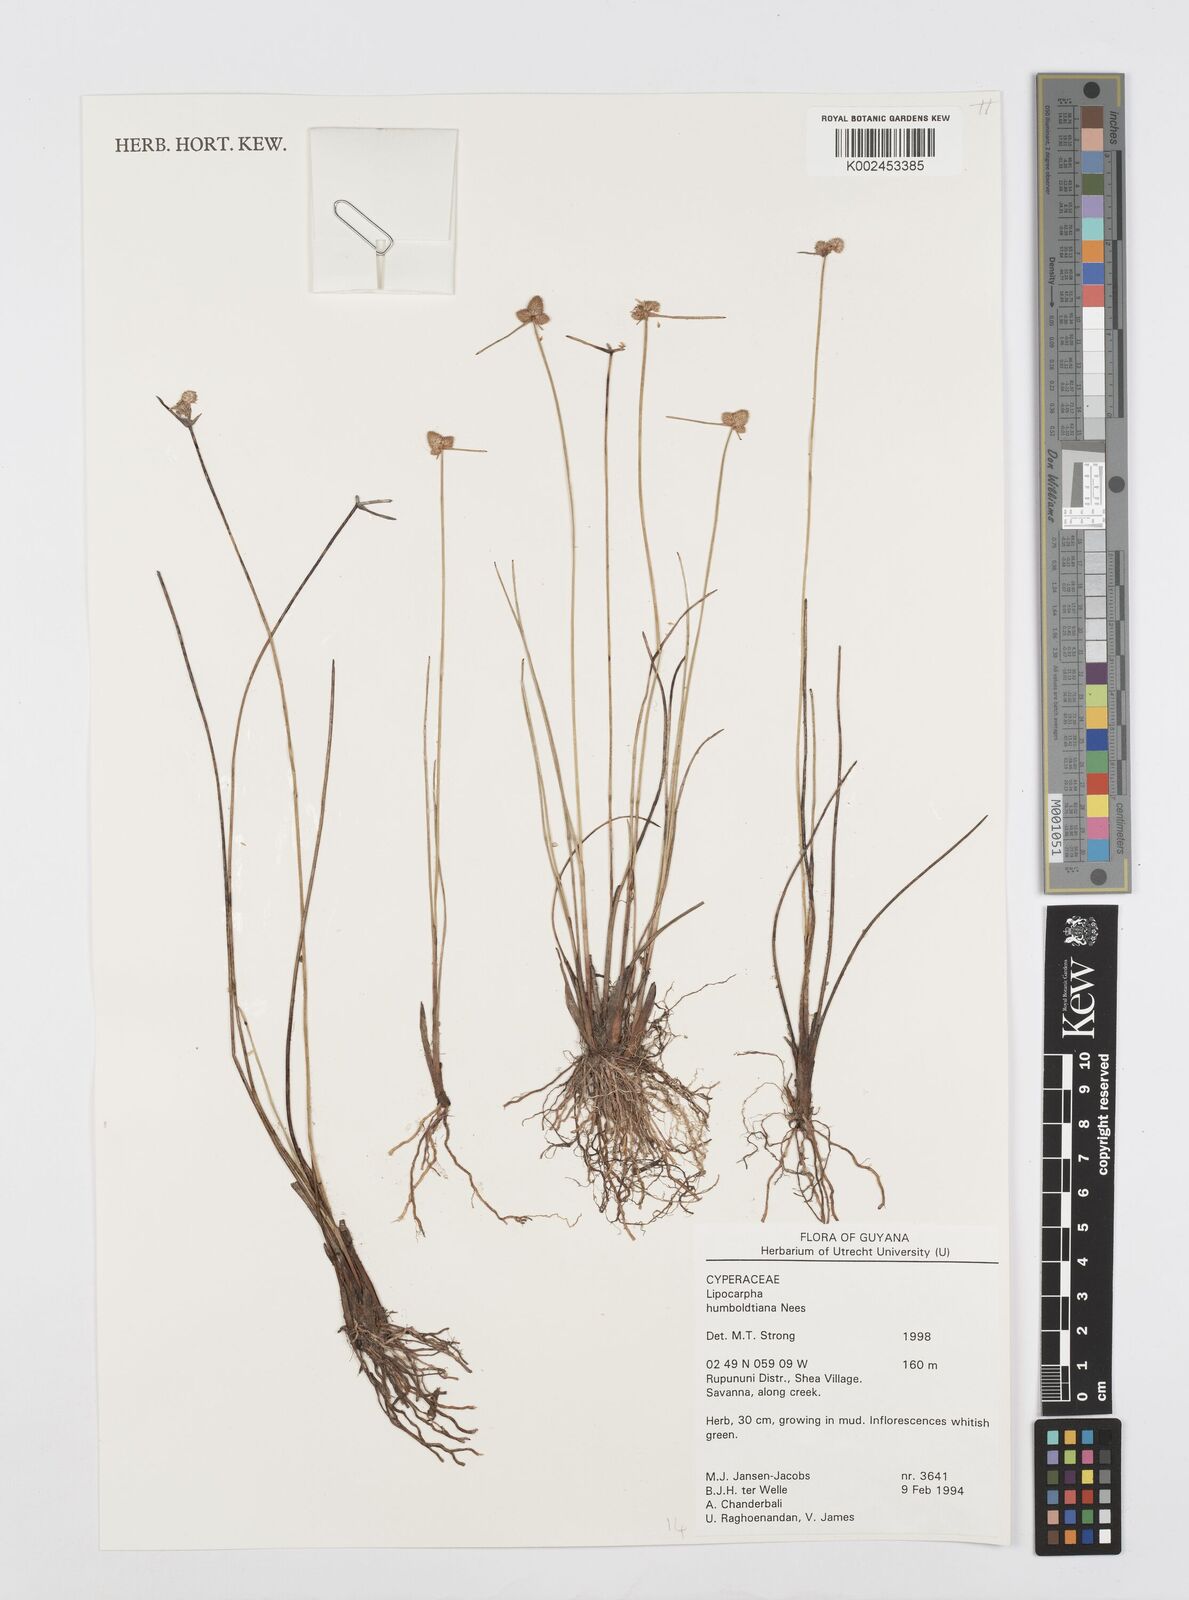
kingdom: Plantae
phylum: Tracheophyta
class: Liliopsida
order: Poales
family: Cyperaceae
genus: Cyperus
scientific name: Cyperus lanceolatus
